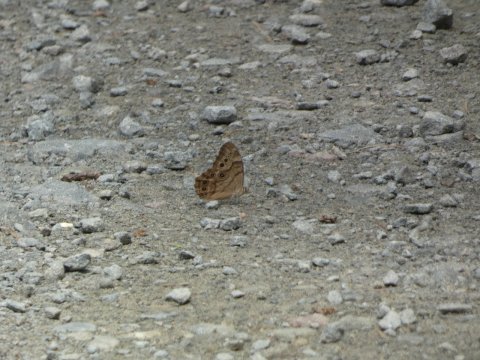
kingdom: Animalia
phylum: Arthropoda
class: Insecta
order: Lepidoptera
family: Nymphalidae
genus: Lethe
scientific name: Lethe anthedon
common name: Northern Pearly-Eye
